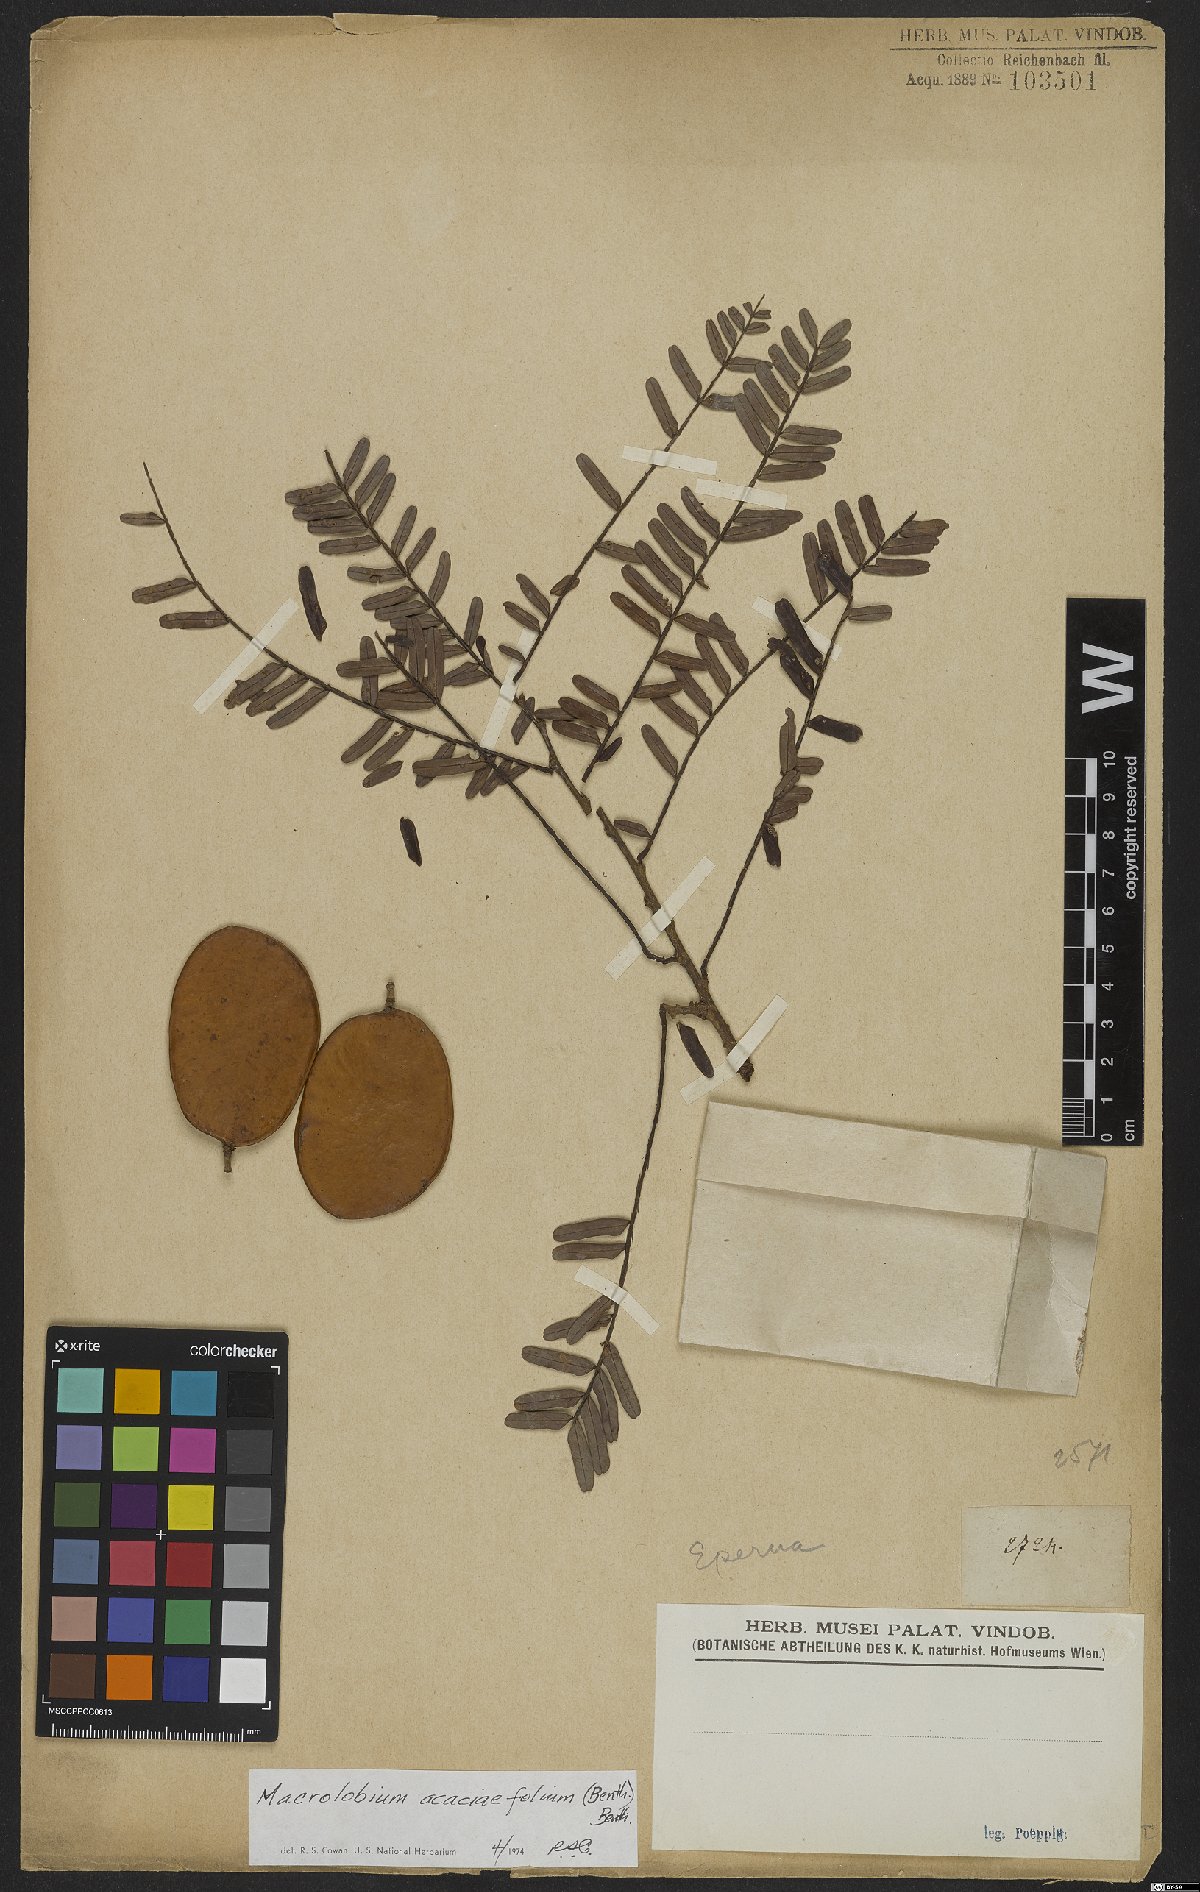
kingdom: Plantae
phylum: Tracheophyta
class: Magnoliopsida
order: Fabales
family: Fabaceae
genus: Macrolobium
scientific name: Macrolobium acaciifolium
